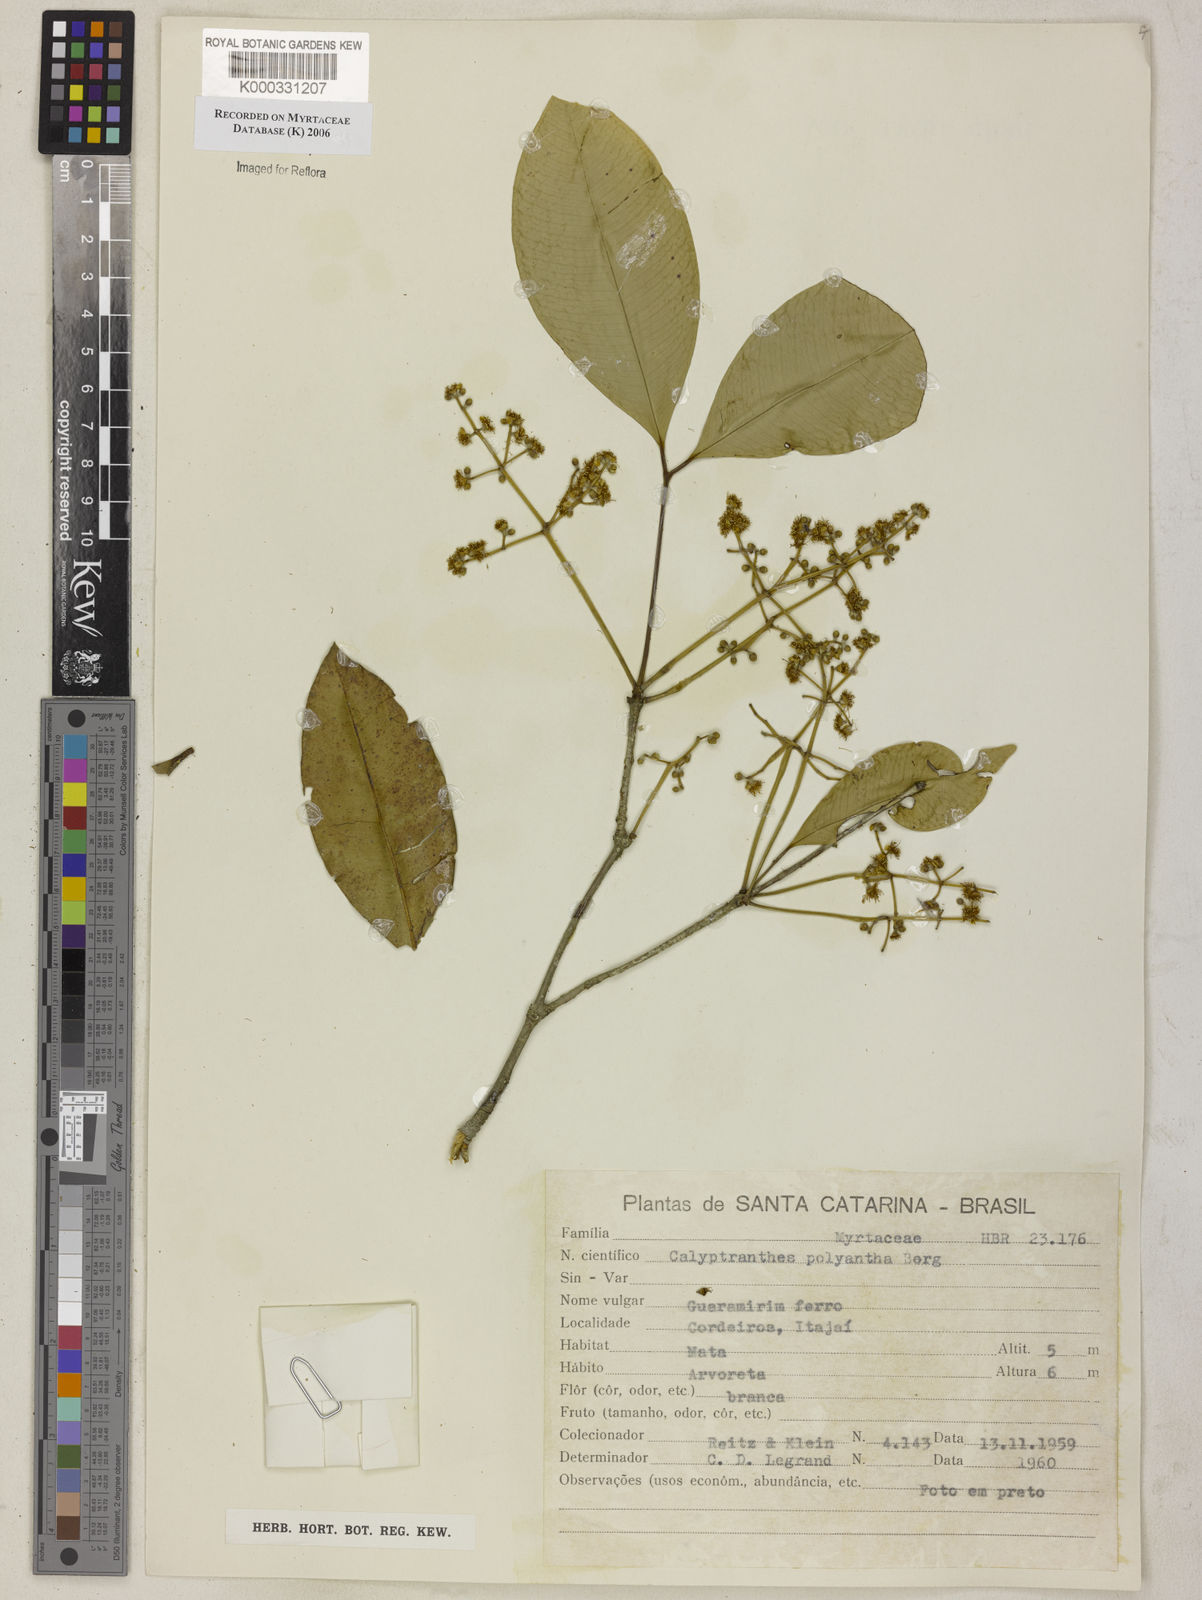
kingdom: Plantae
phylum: Tracheophyta
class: Magnoliopsida
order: Myrtales
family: Myrtaceae
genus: Myrcia
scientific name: Myrcia neolucida
